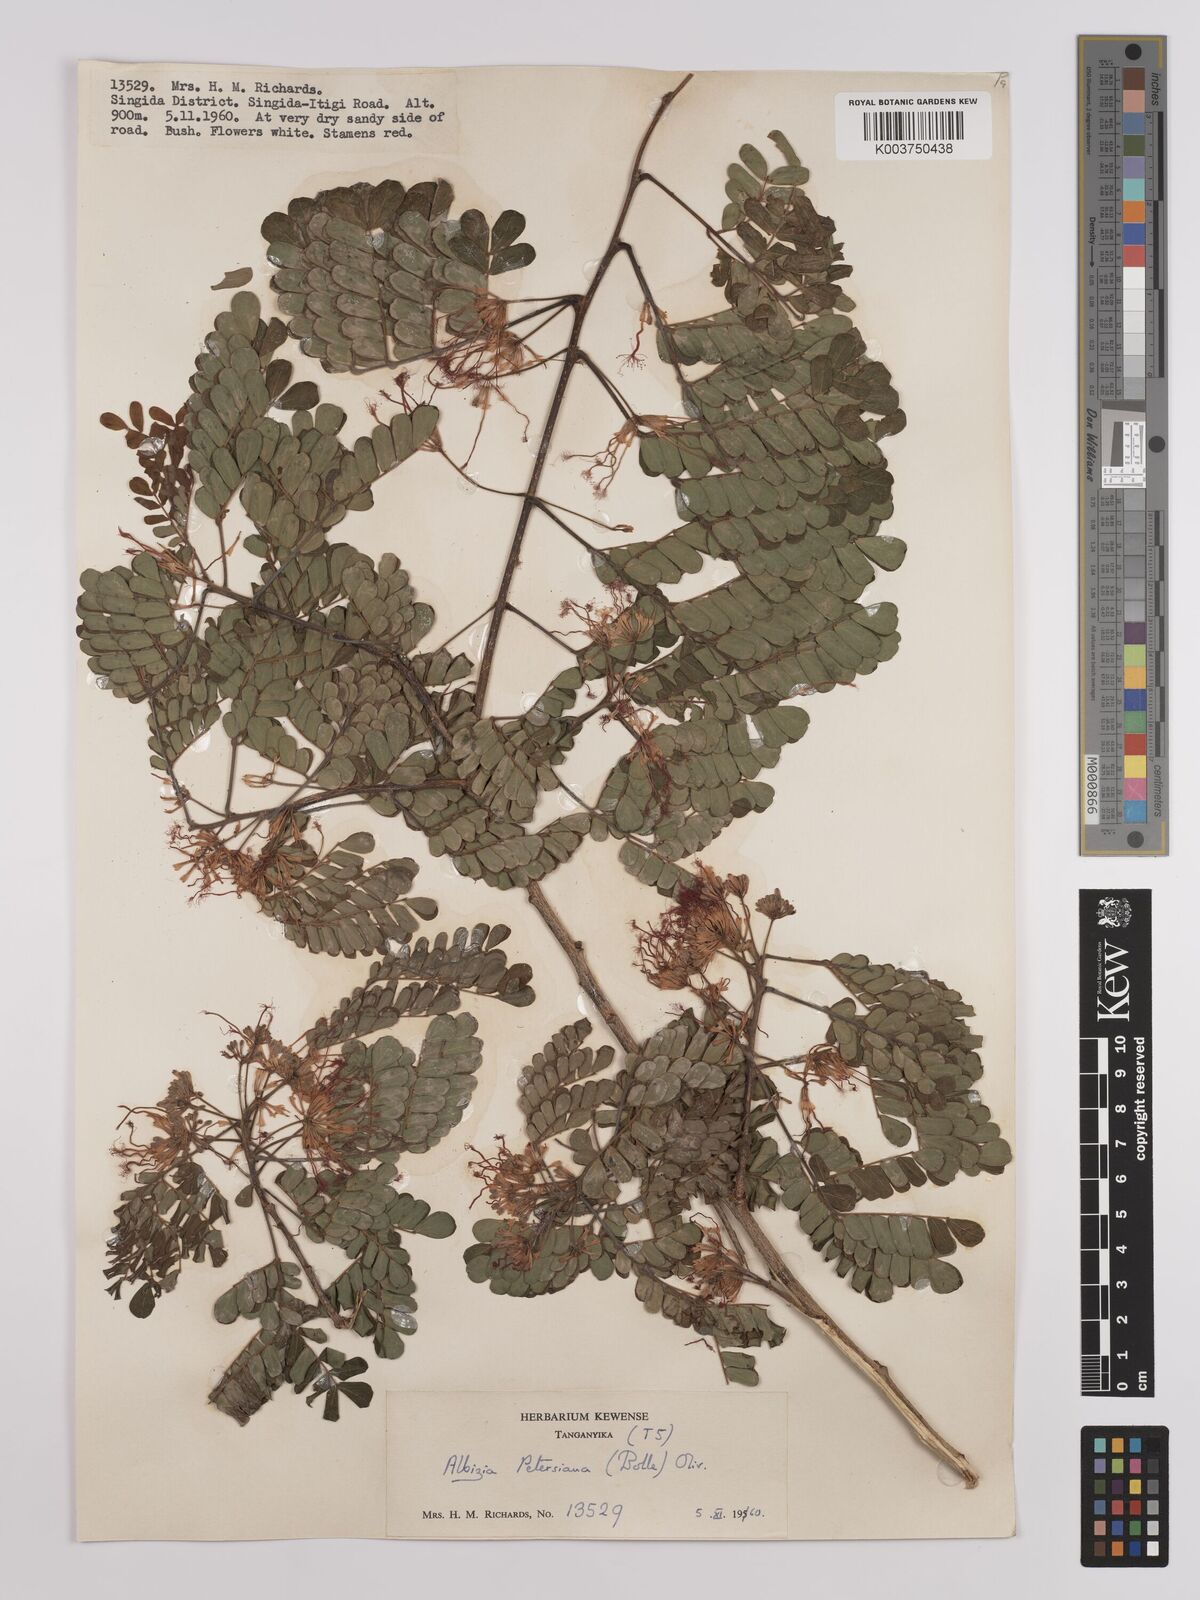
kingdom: Plantae
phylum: Tracheophyta
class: Magnoliopsida
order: Fabales
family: Fabaceae
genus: Albizia
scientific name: Albizia petersiana
